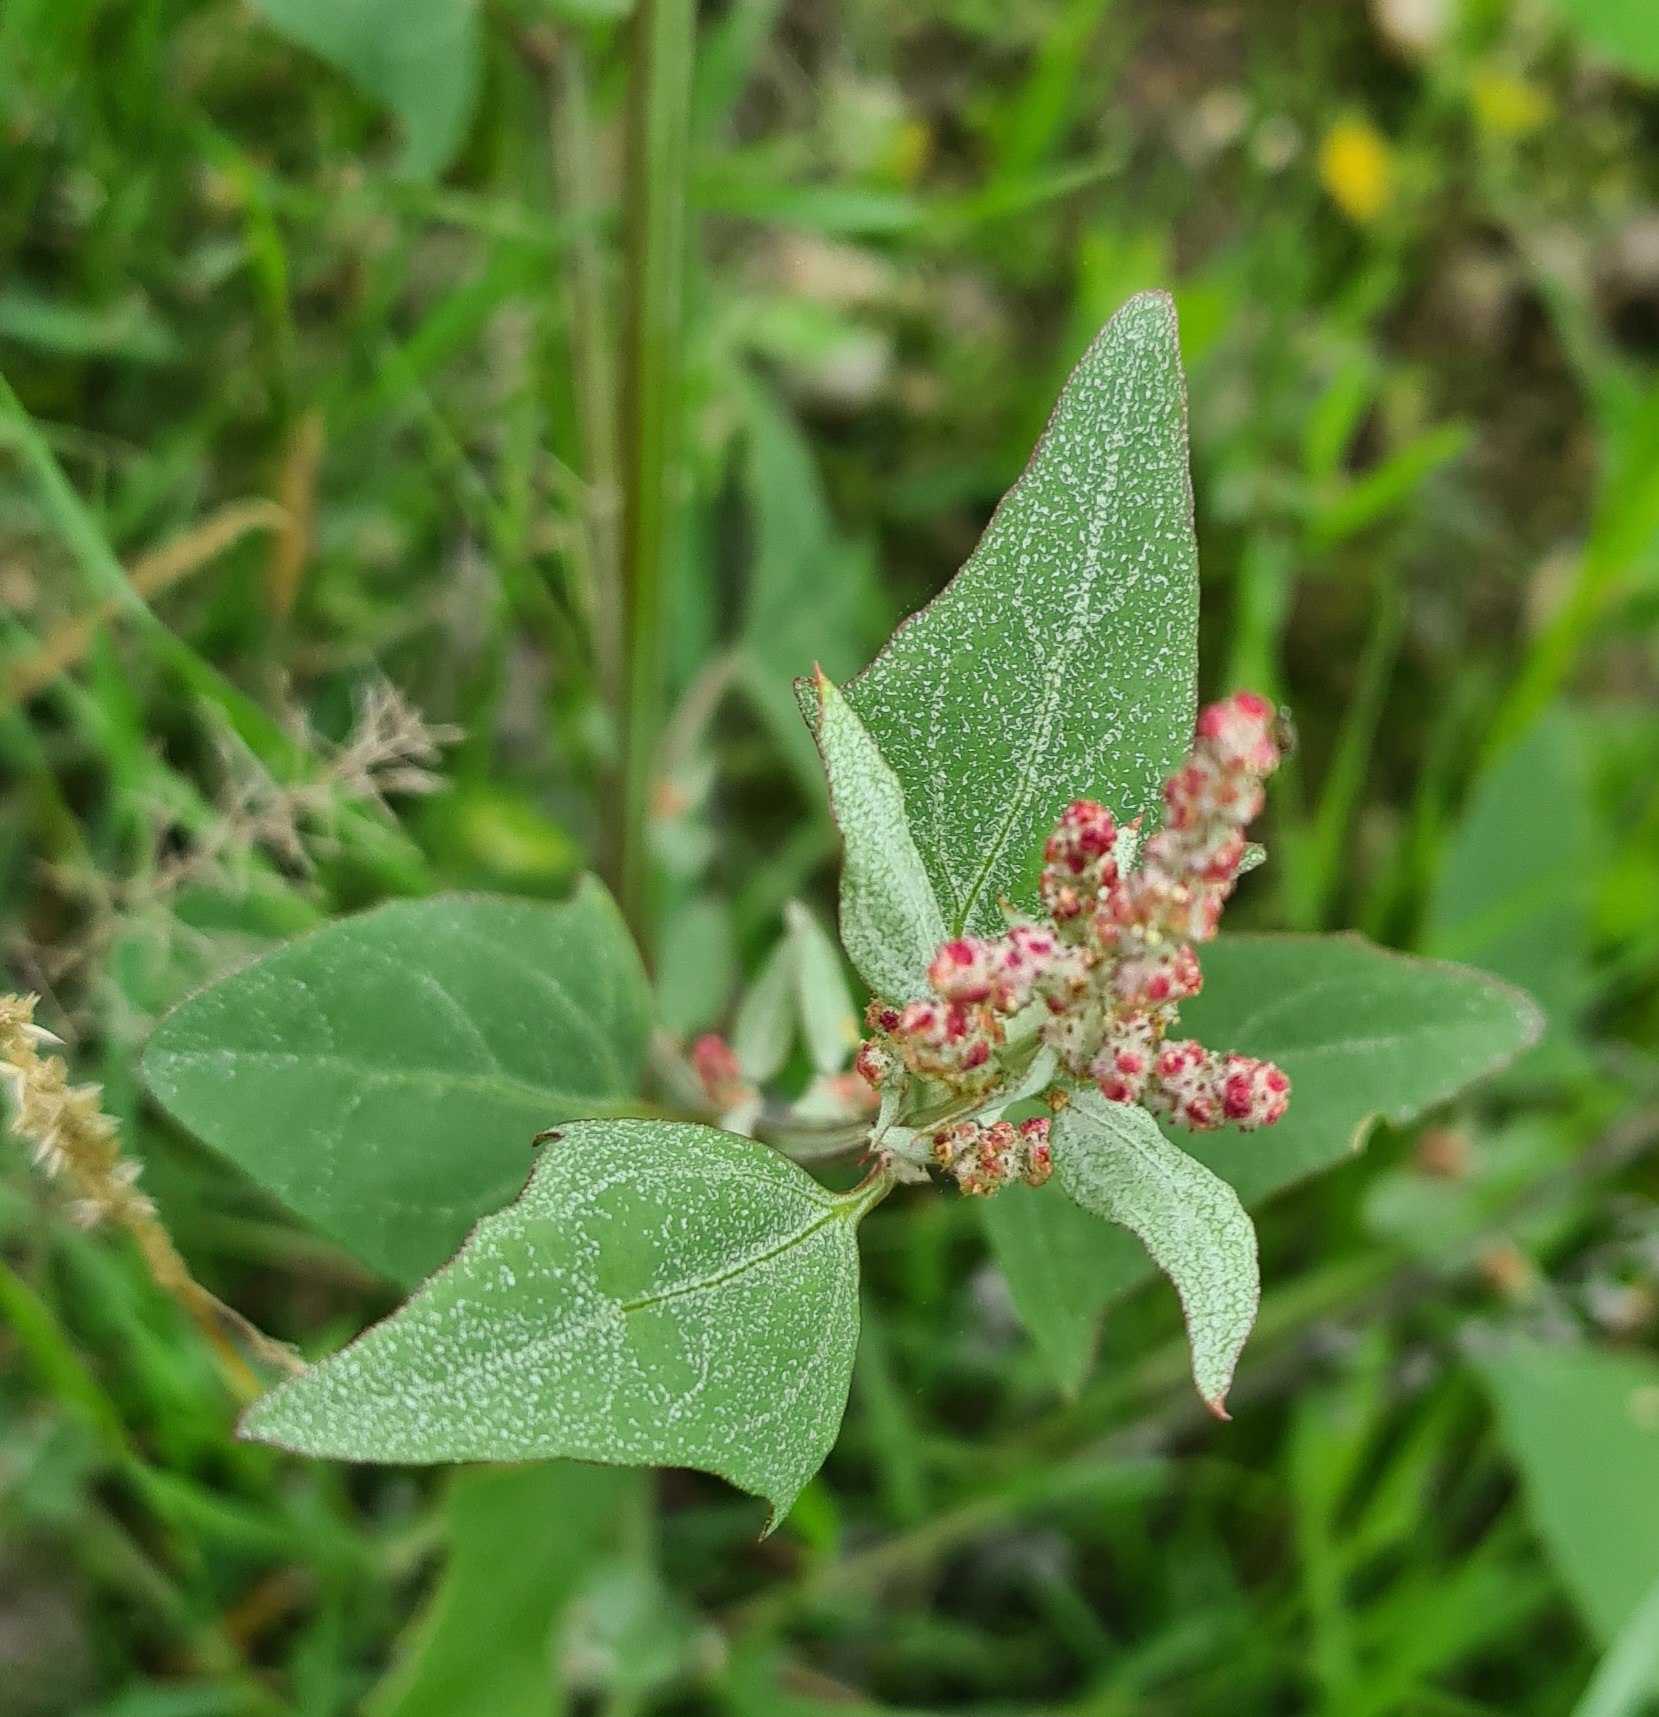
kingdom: Plantae
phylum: Tracheophyta
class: Magnoliopsida
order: Caryophyllales
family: Amaranthaceae
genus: Atriplex
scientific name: Atriplex prostrata
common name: Spyd-mælde
